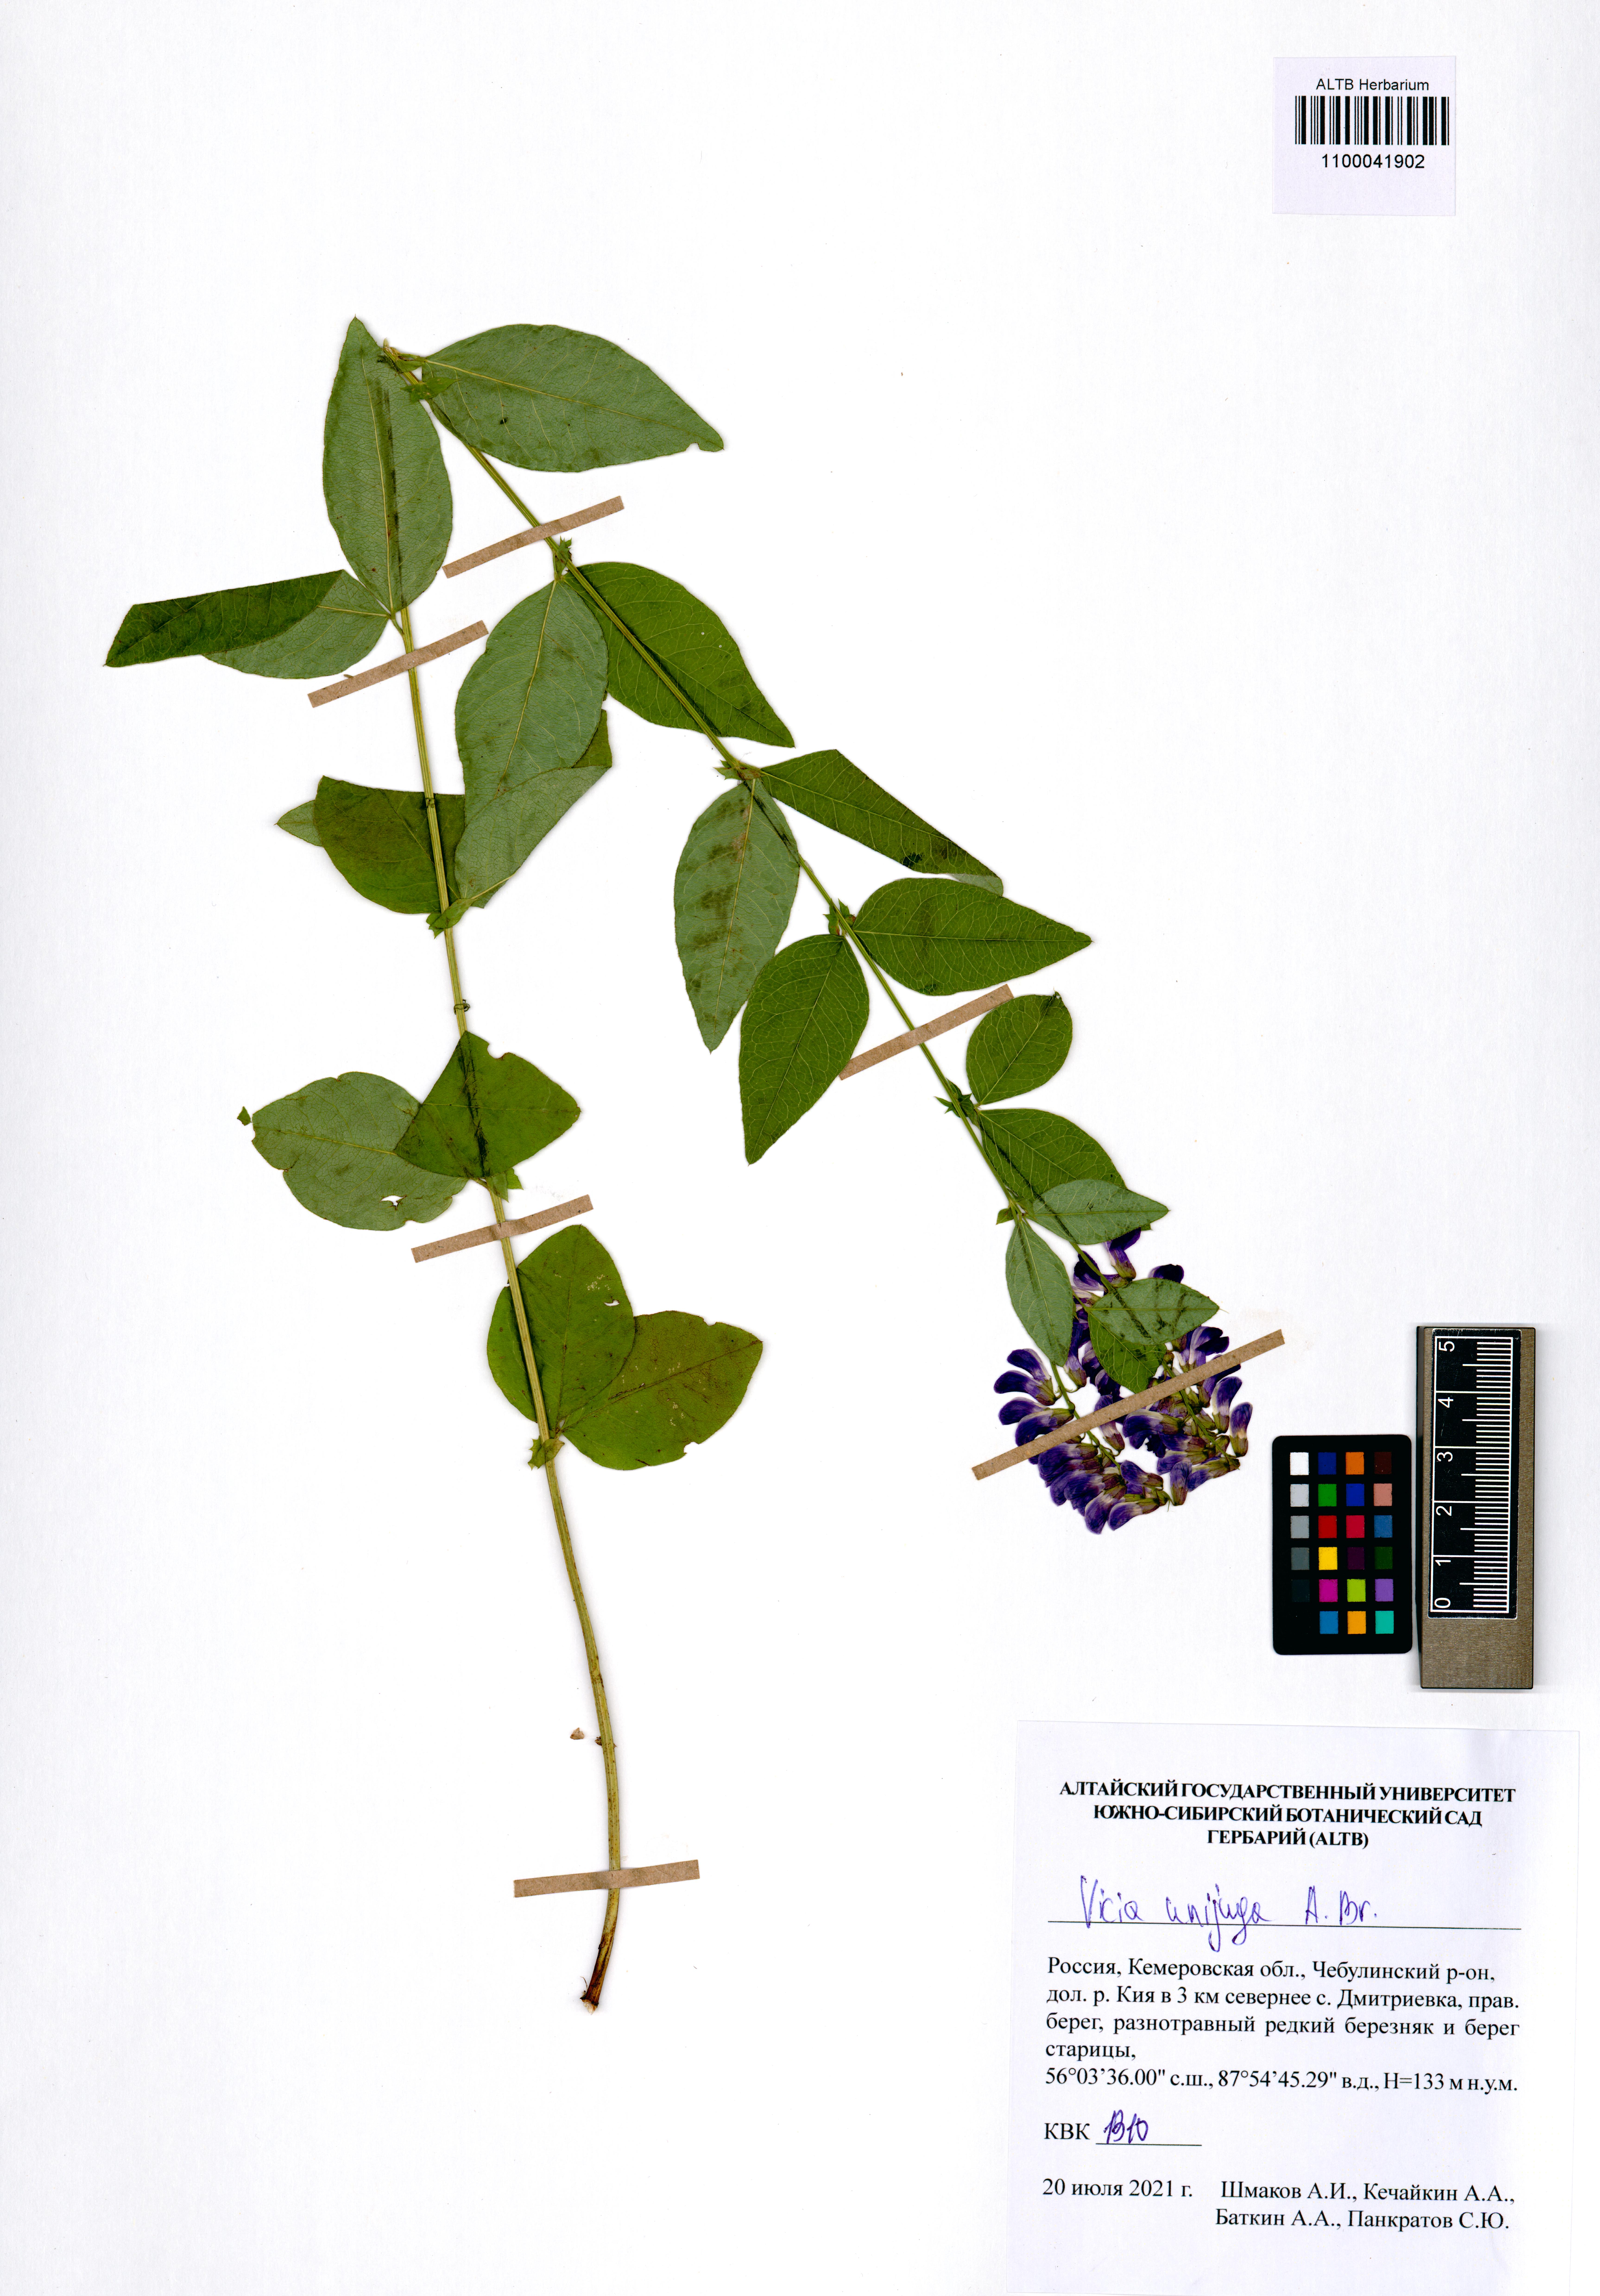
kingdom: Plantae
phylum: Tracheophyta
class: Magnoliopsida
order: Fabales
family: Fabaceae
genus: Vicia
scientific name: Vicia unijuga
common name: Two-leaf vetch
